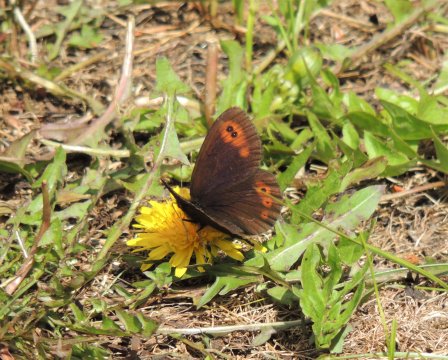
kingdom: Animalia
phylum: Arthropoda
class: Insecta
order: Lepidoptera
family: Nymphalidae
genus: Erebia
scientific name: Erebia epipsodea
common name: Common Alpine
